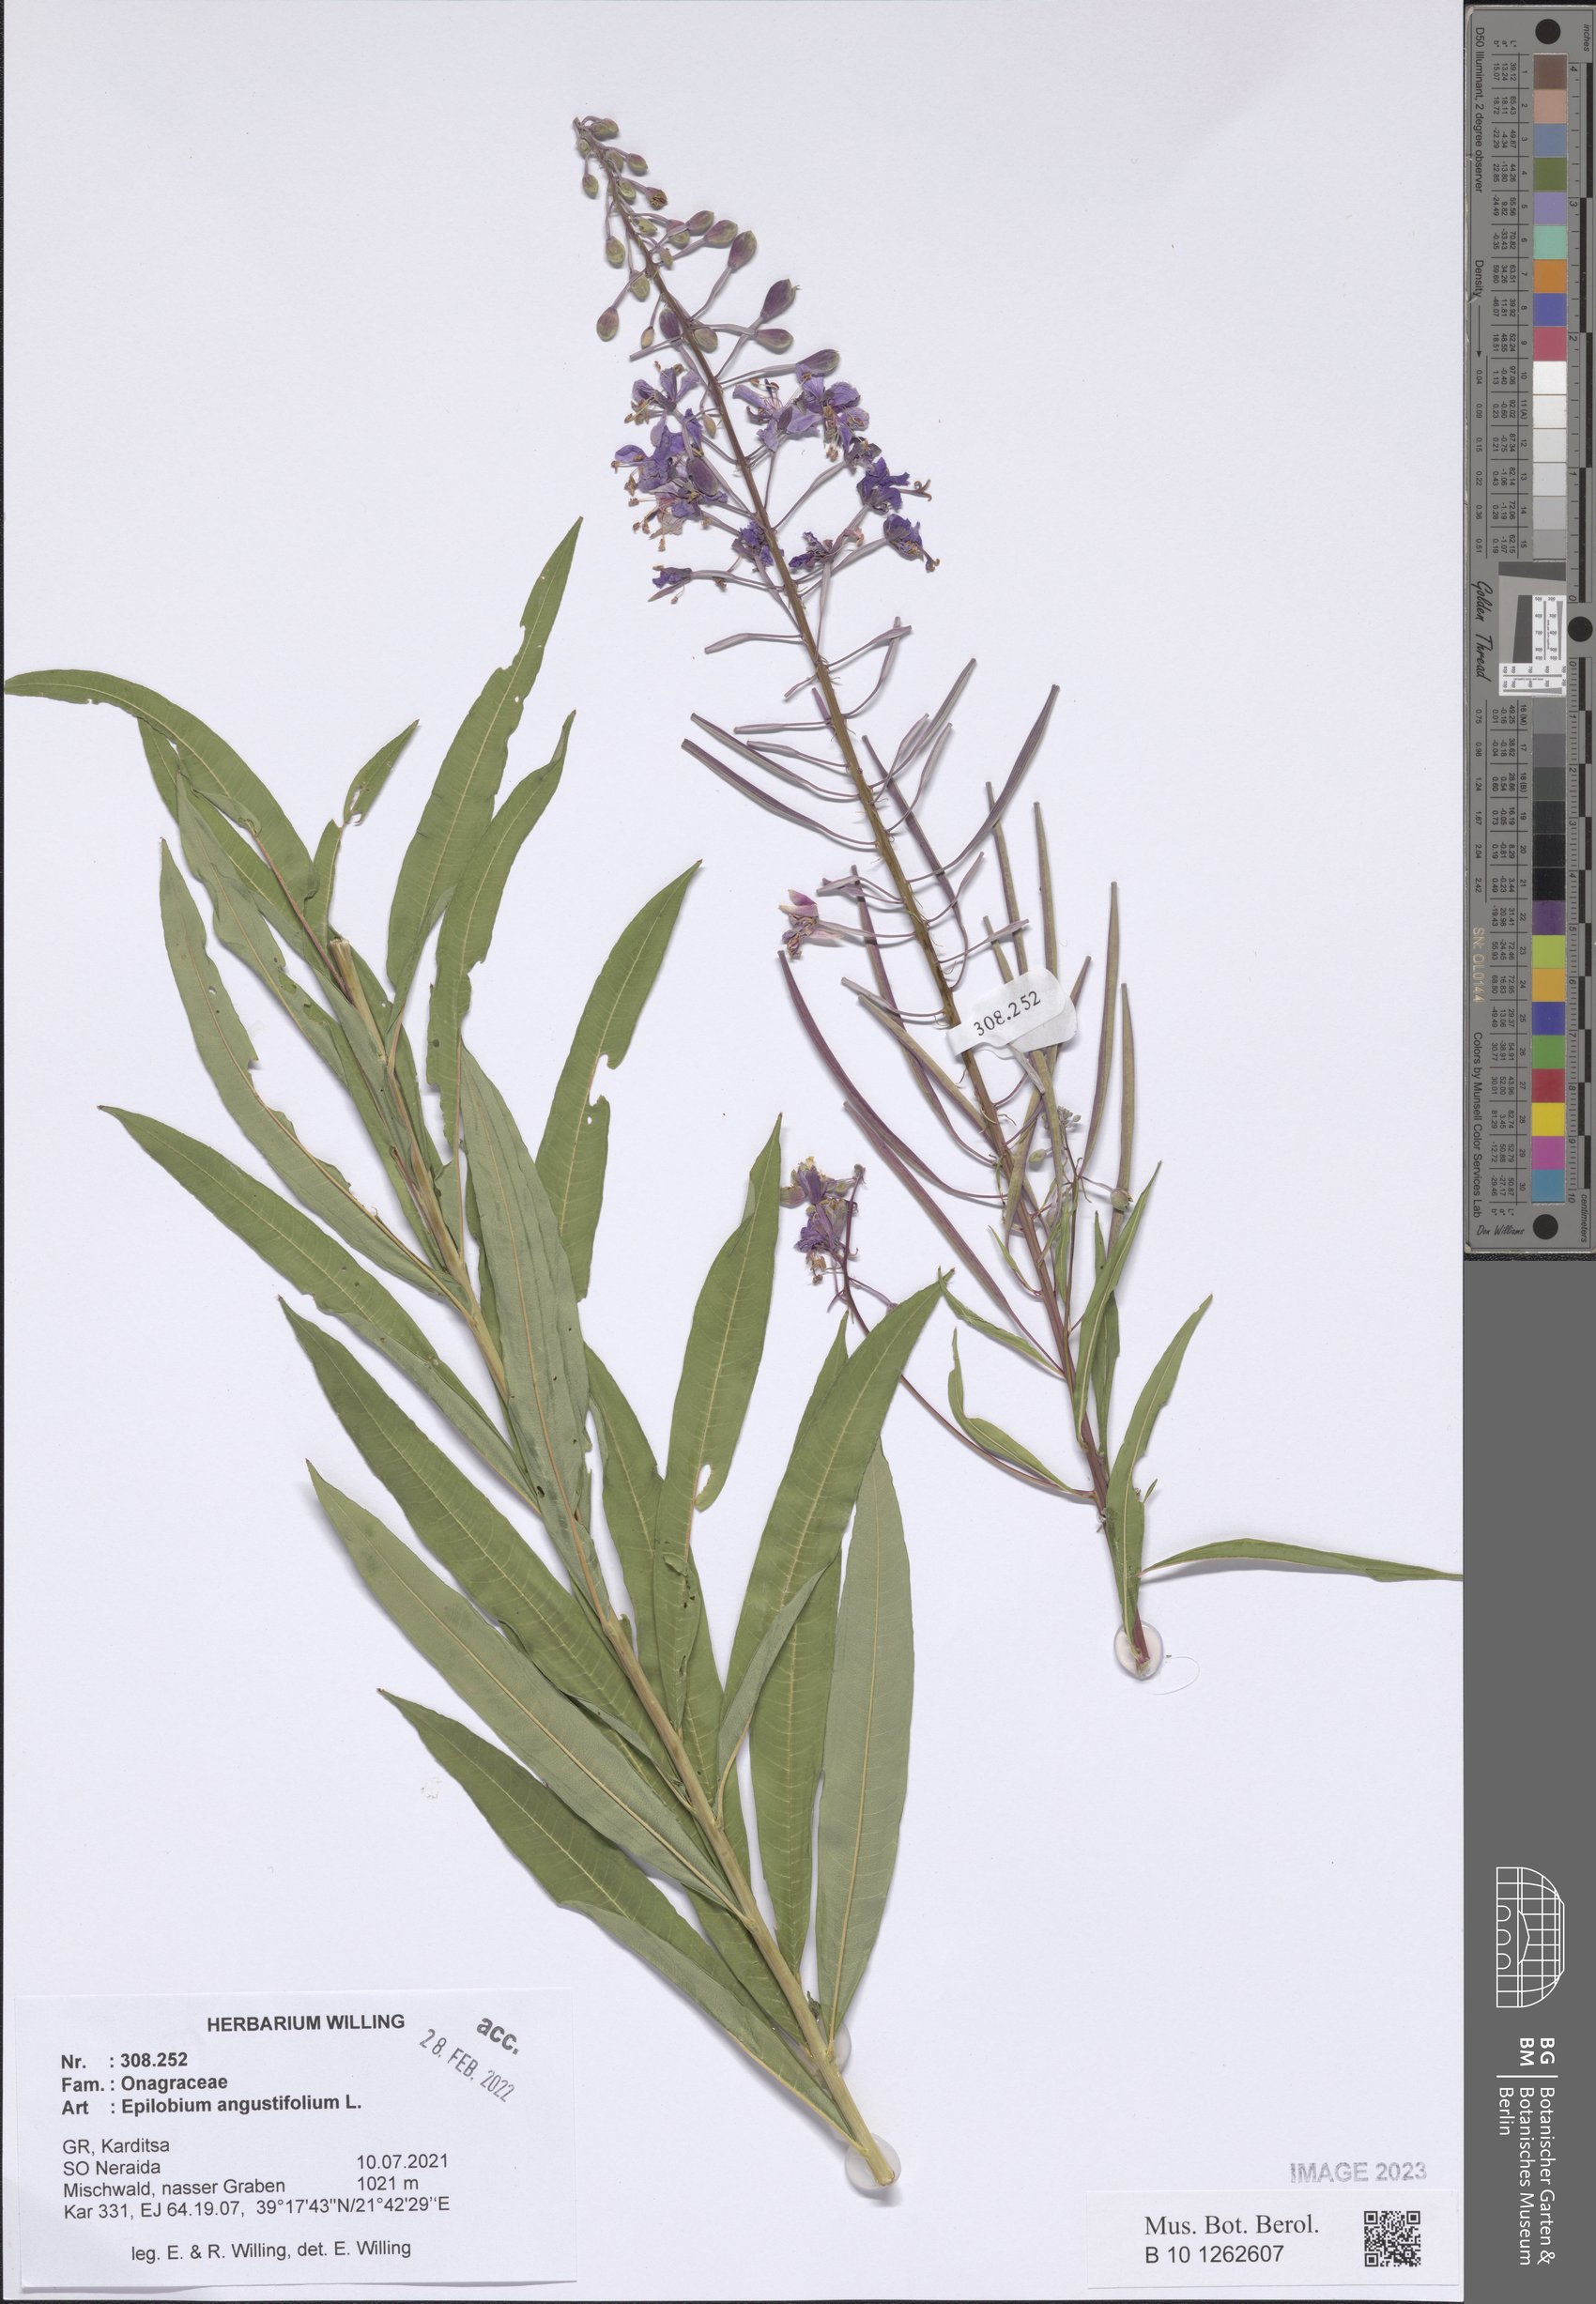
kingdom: Plantae
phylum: Tracheophyta
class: Magnoliopsida
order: Myrtales
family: Onagraceae
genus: Chamaenerion
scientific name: Chamaenerion angustifolium
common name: Fireweed
